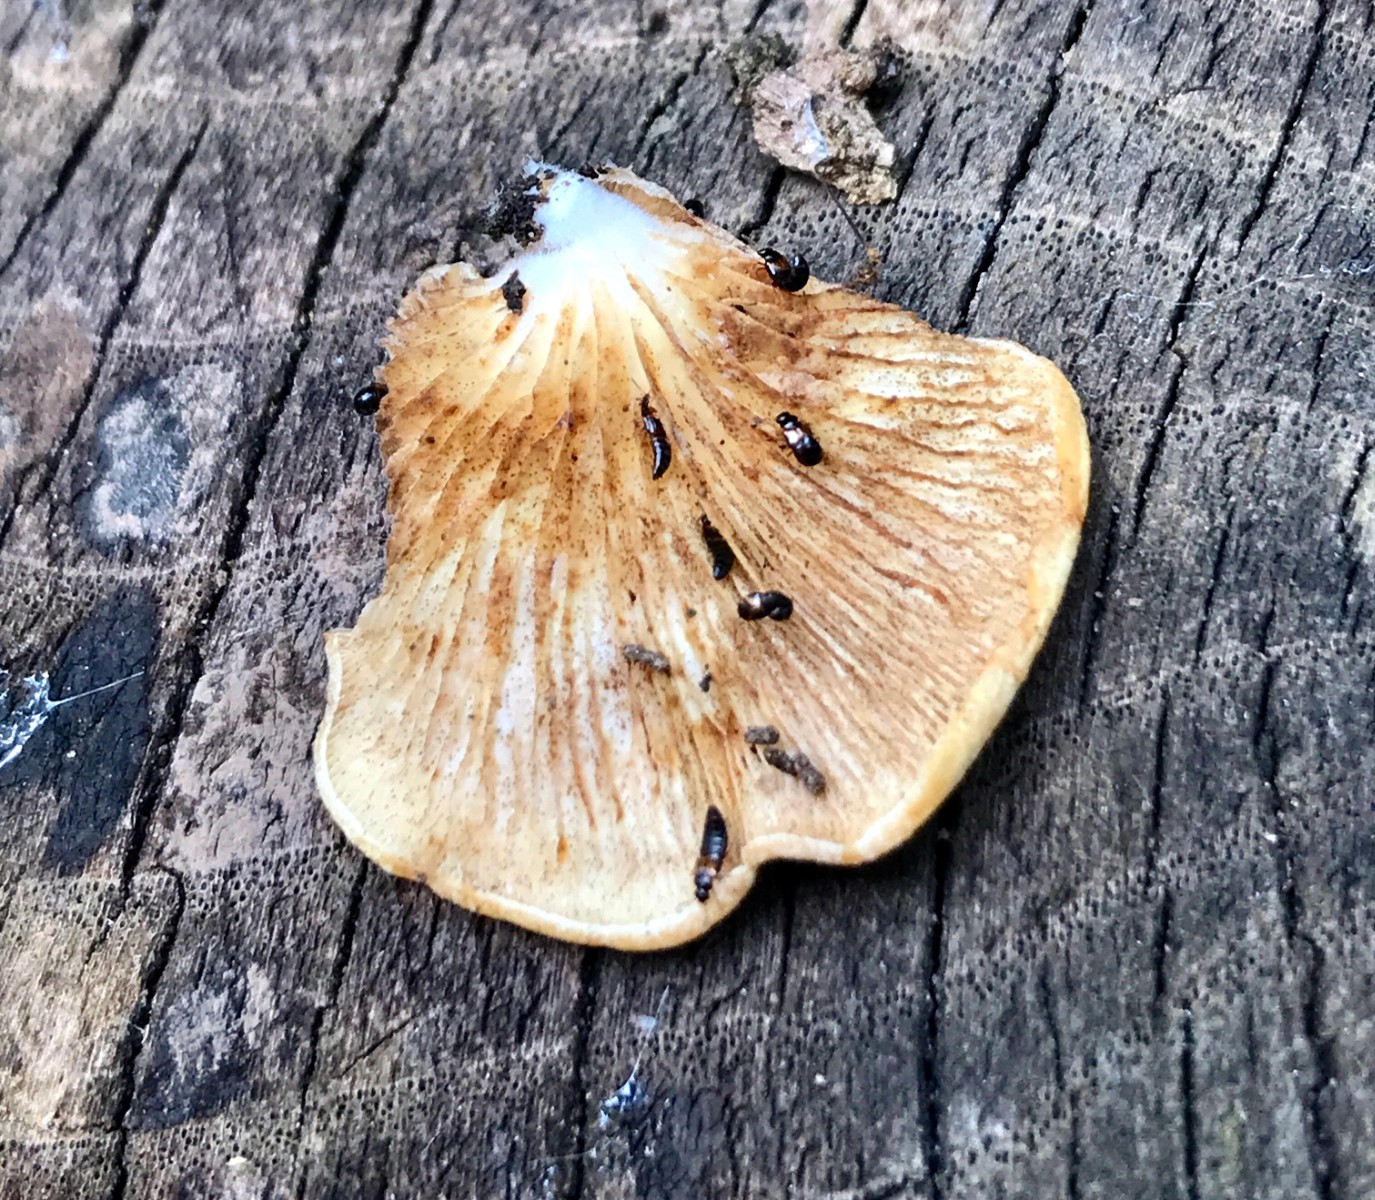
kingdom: Fungi
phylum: Basidiomycota
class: Agaricomycetes
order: Agaricales
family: Crepidotaceae
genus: Crepidotus
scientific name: Crepidotus mollis
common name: blød muslingesvamp
